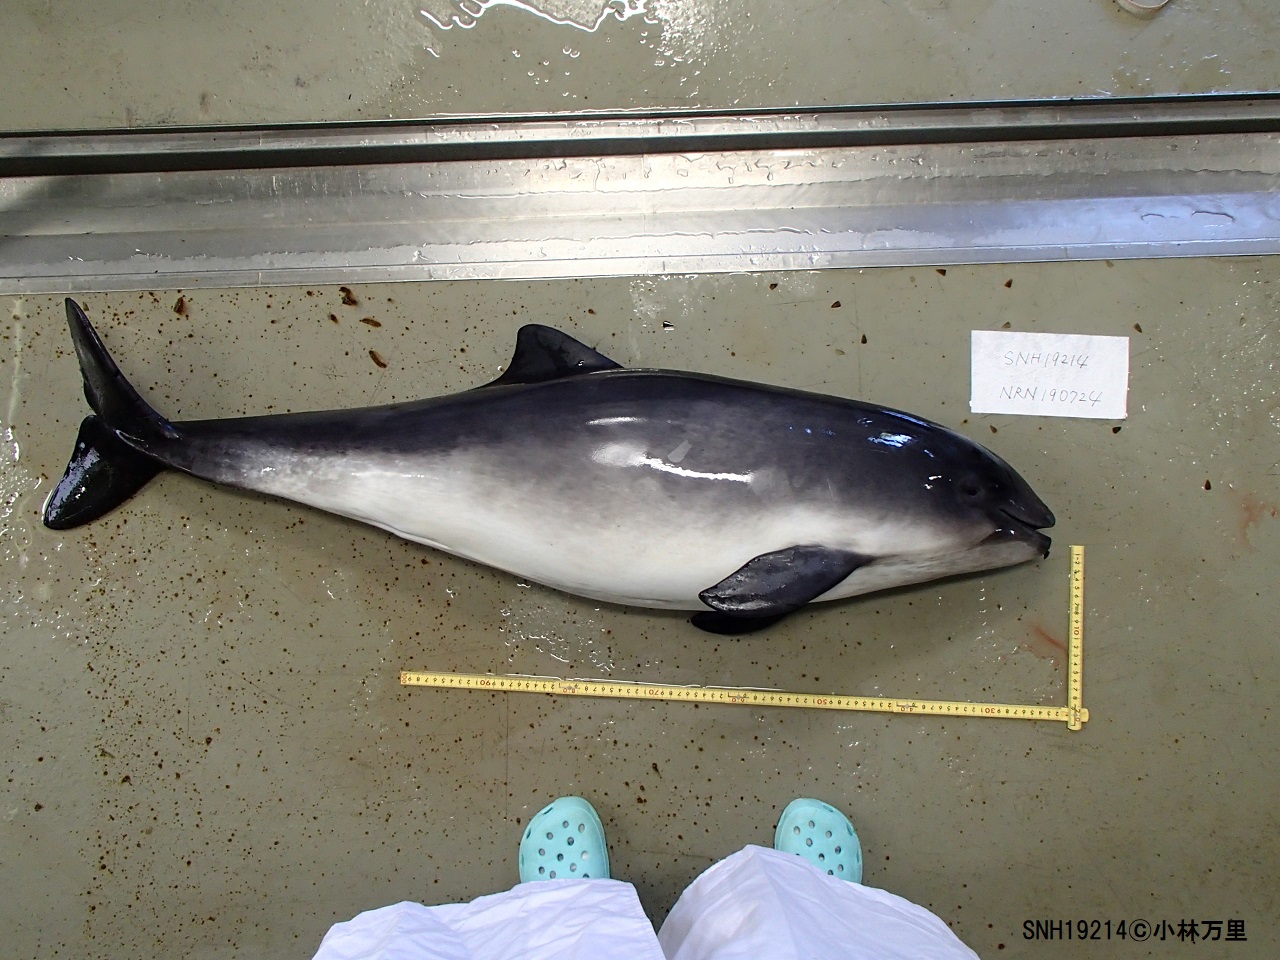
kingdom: Animalia
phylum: Chordata
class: Mammalia
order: Cetacea
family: Phocoenidae
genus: Phocoena
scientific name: Phocoena phocoena
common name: Harbour porpoise
